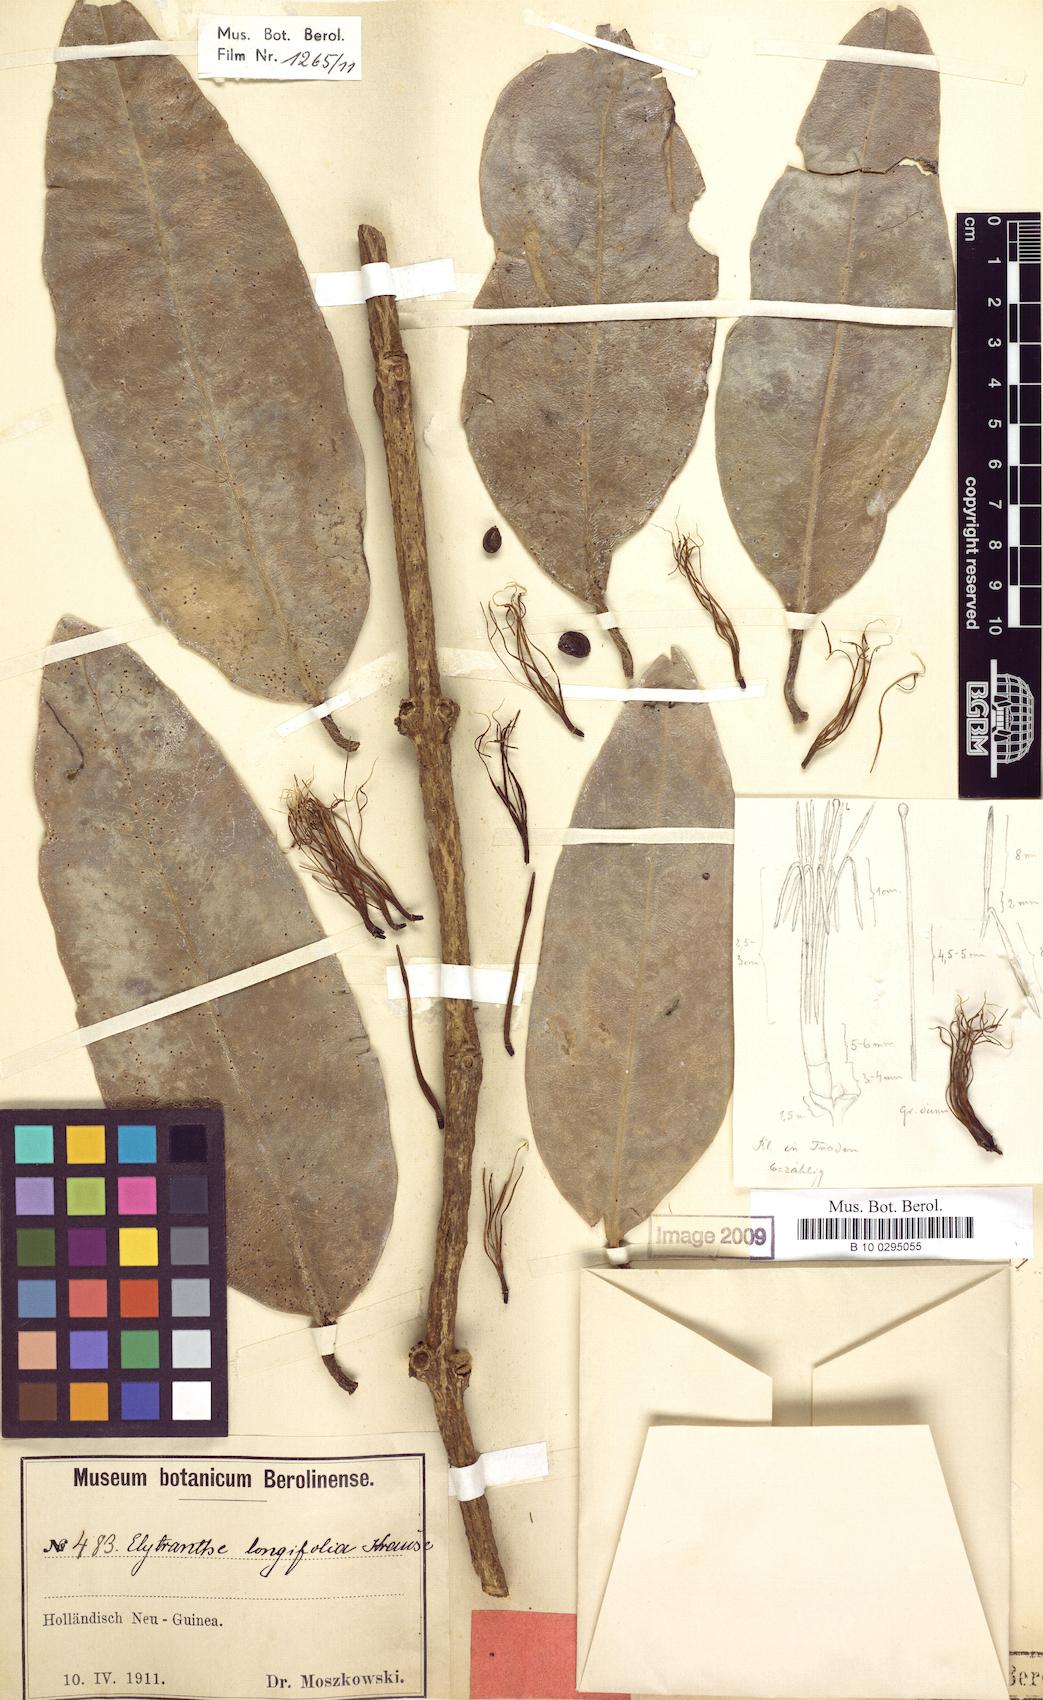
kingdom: Plantae
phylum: Tracheophyta
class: Magnoliopsida
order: Santalales
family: Loranthaceae
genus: Decaisnina
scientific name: Decaisnina hollrungii
